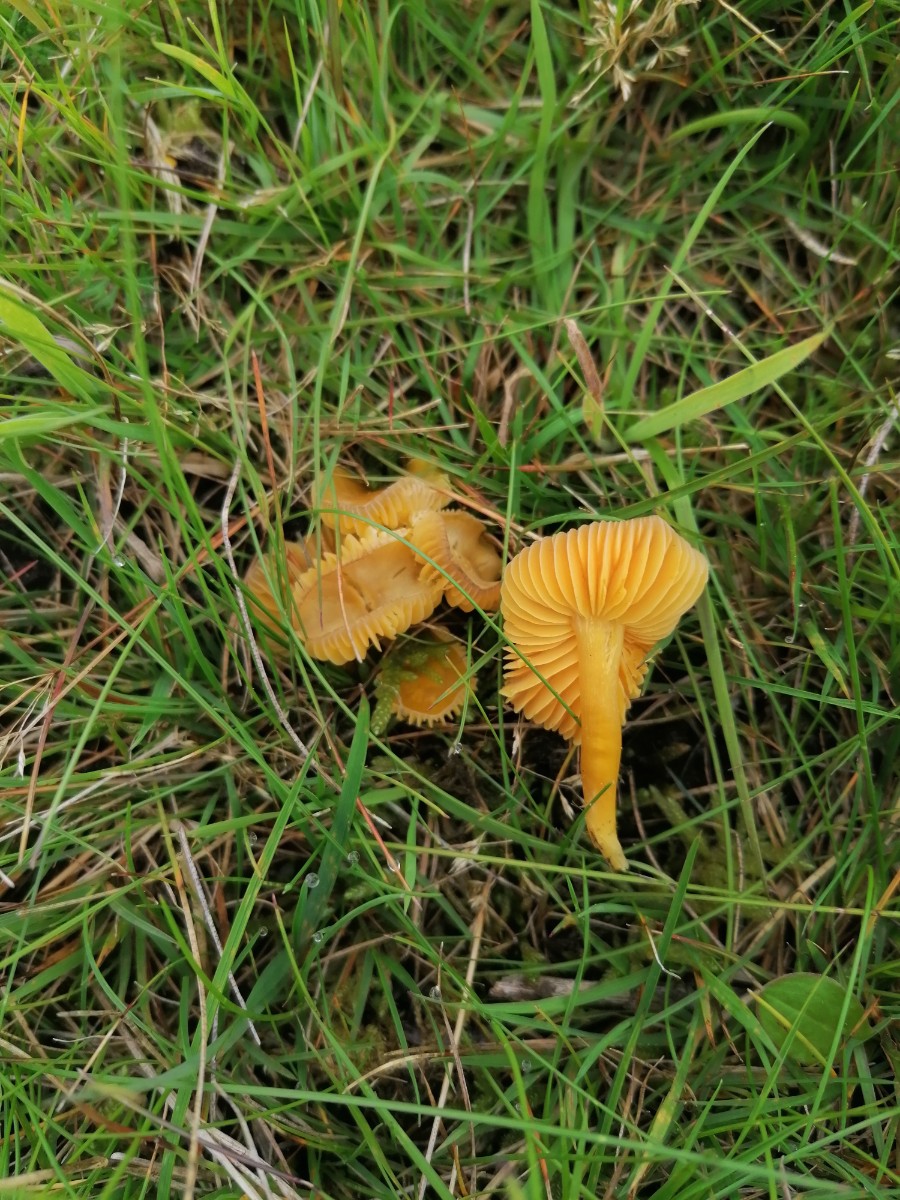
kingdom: Fungi
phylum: Basidiomycota
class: Agaricomycetes
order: Agaricales
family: Hygrophoraceae
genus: Hygrocybe
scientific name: Hygrocybe ceracea
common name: voksgul vokshat
